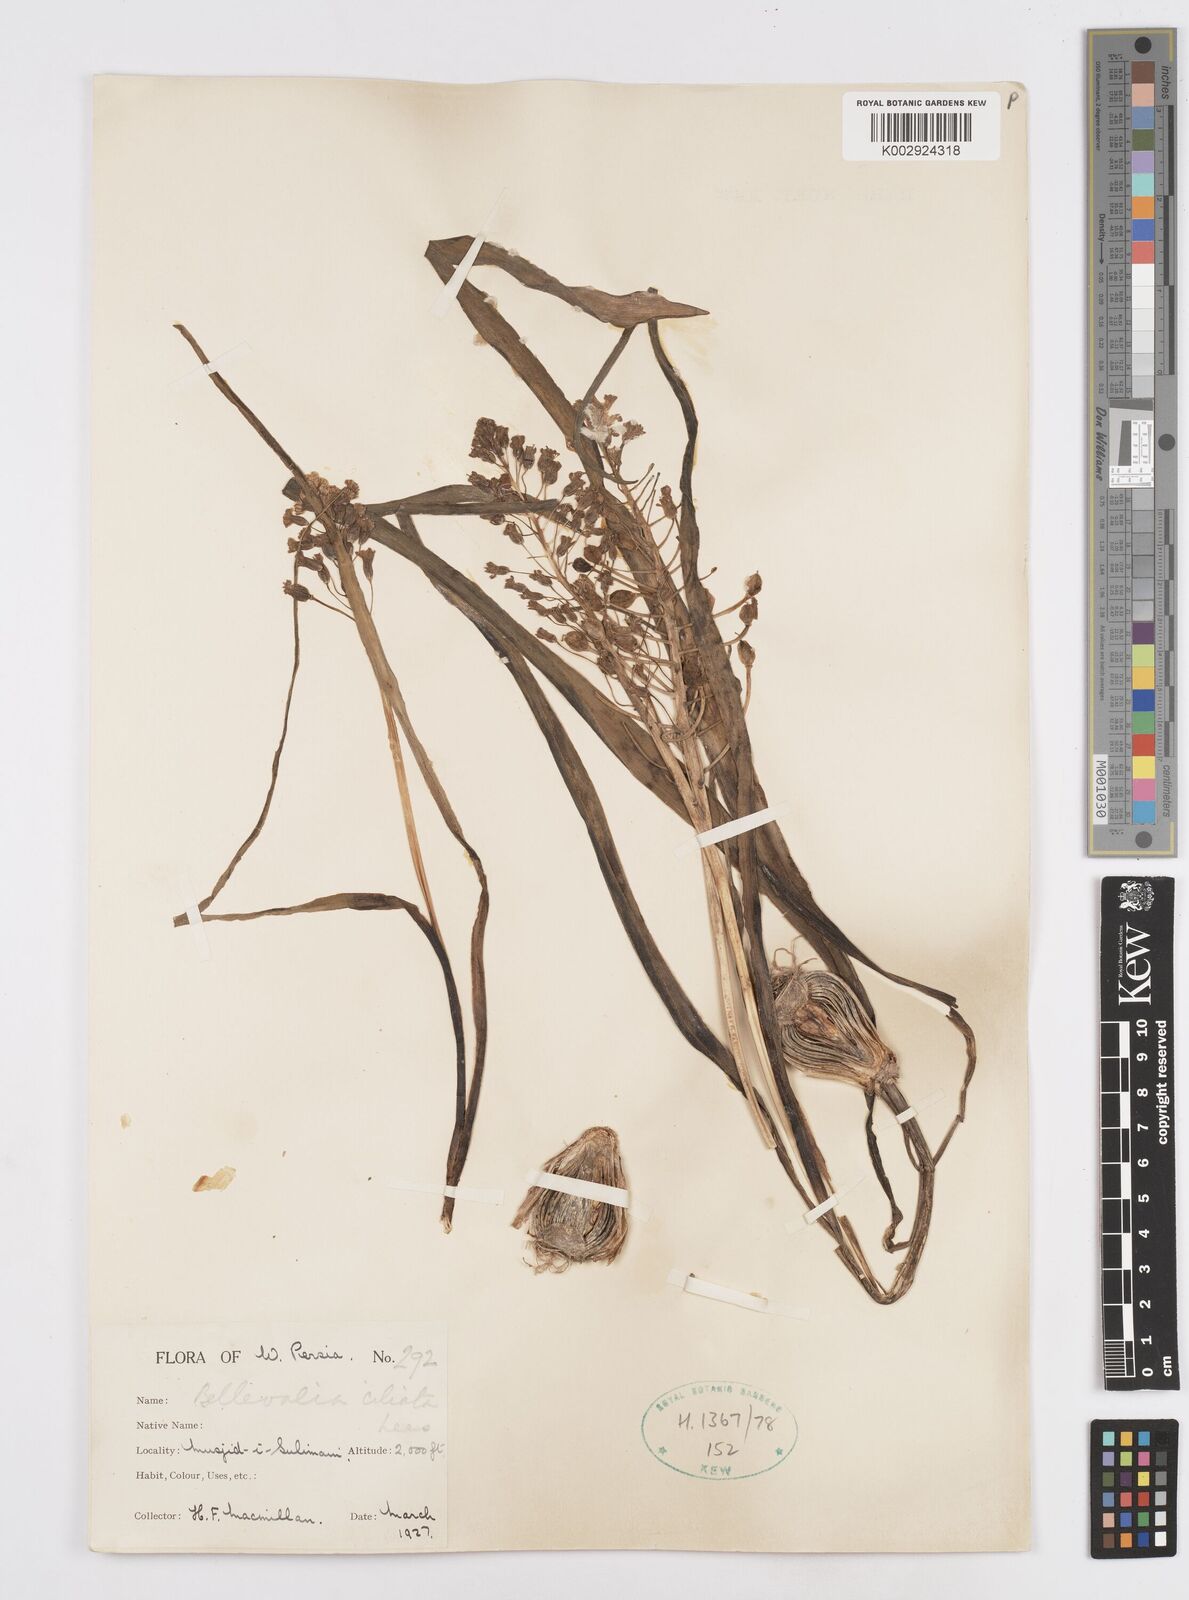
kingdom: Plantae
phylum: Tracheophyta
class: Liliopsida
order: Asparagales
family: Asparagaceae
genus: Bellevalia
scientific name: Bellevalia ciliata
